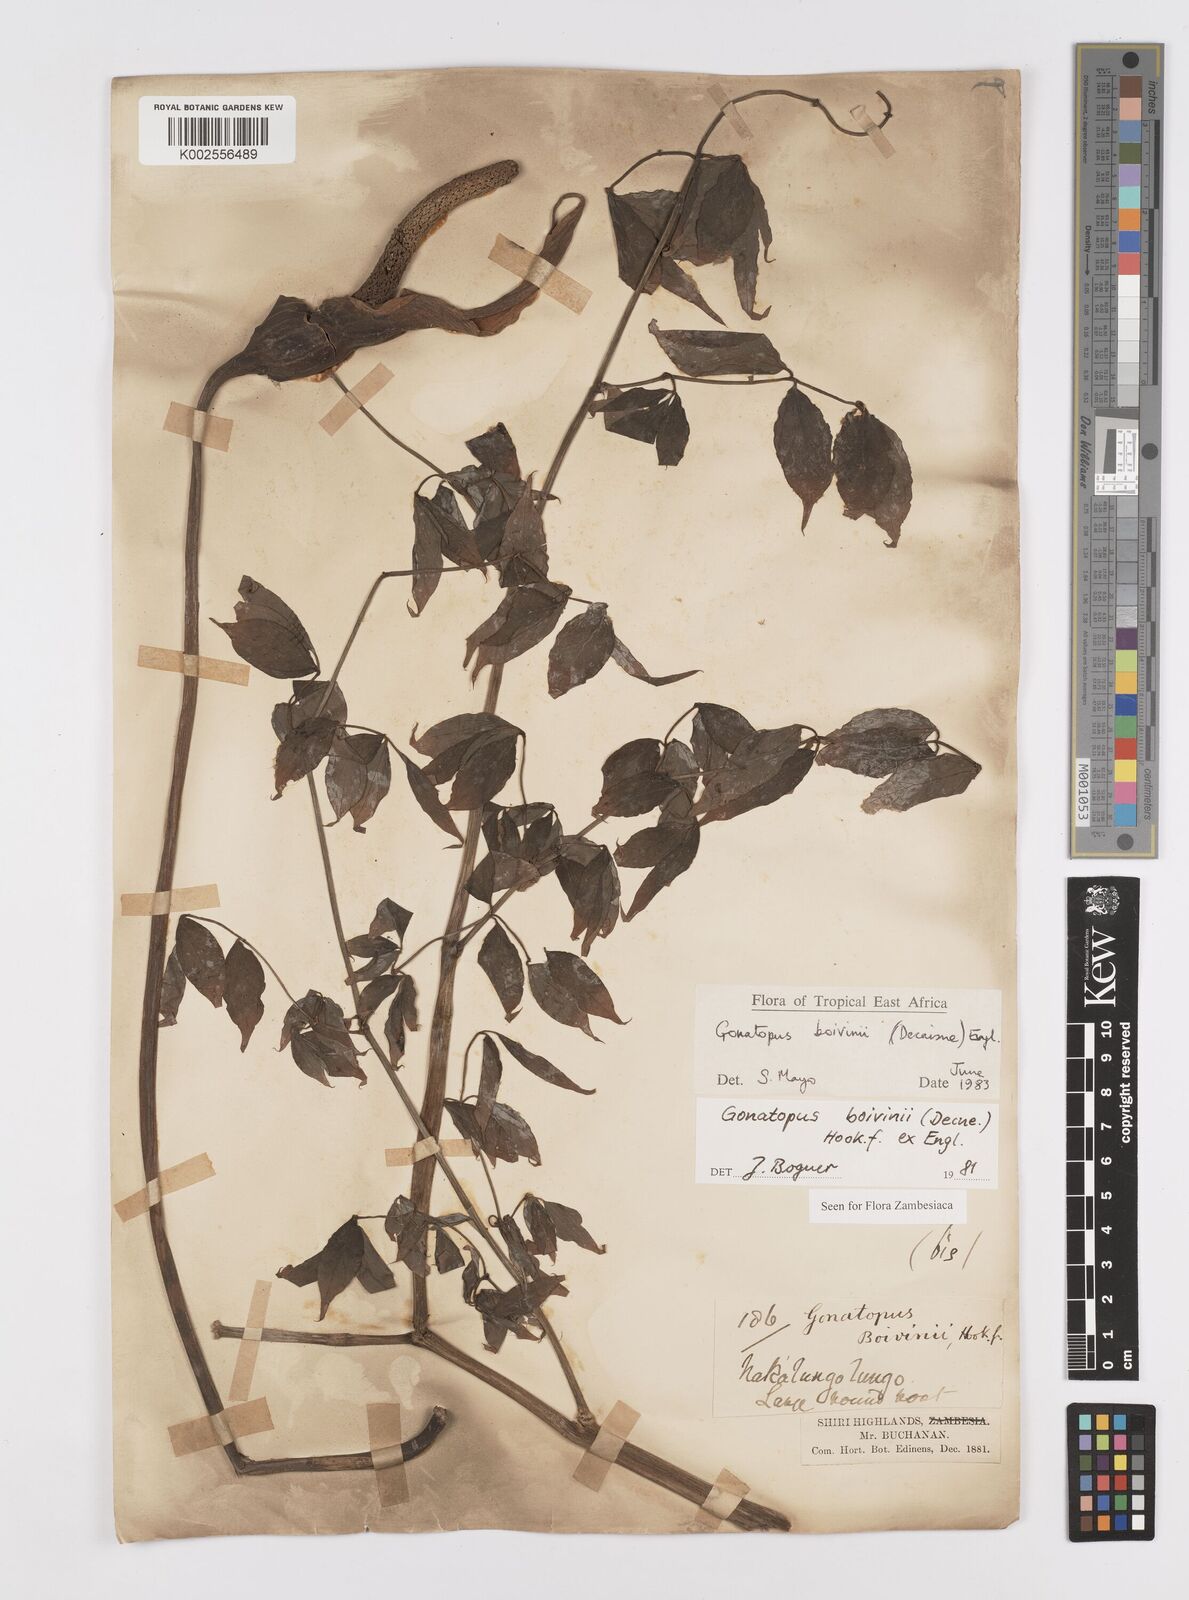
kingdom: Plantae
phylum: Tracheophyta
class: Liliopsida
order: Alismatales
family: Araceae
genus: Gonatopus
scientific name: Gonatopus boivinii
